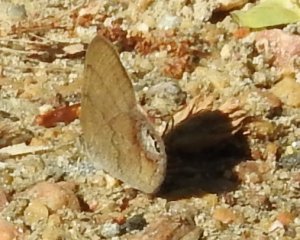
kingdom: Animalia
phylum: Arthropoda
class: Insecta
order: Lepidoptera
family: Nymphalidae
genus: Euptychia
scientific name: Euptychia cornelius
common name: Gemmed Satyr
